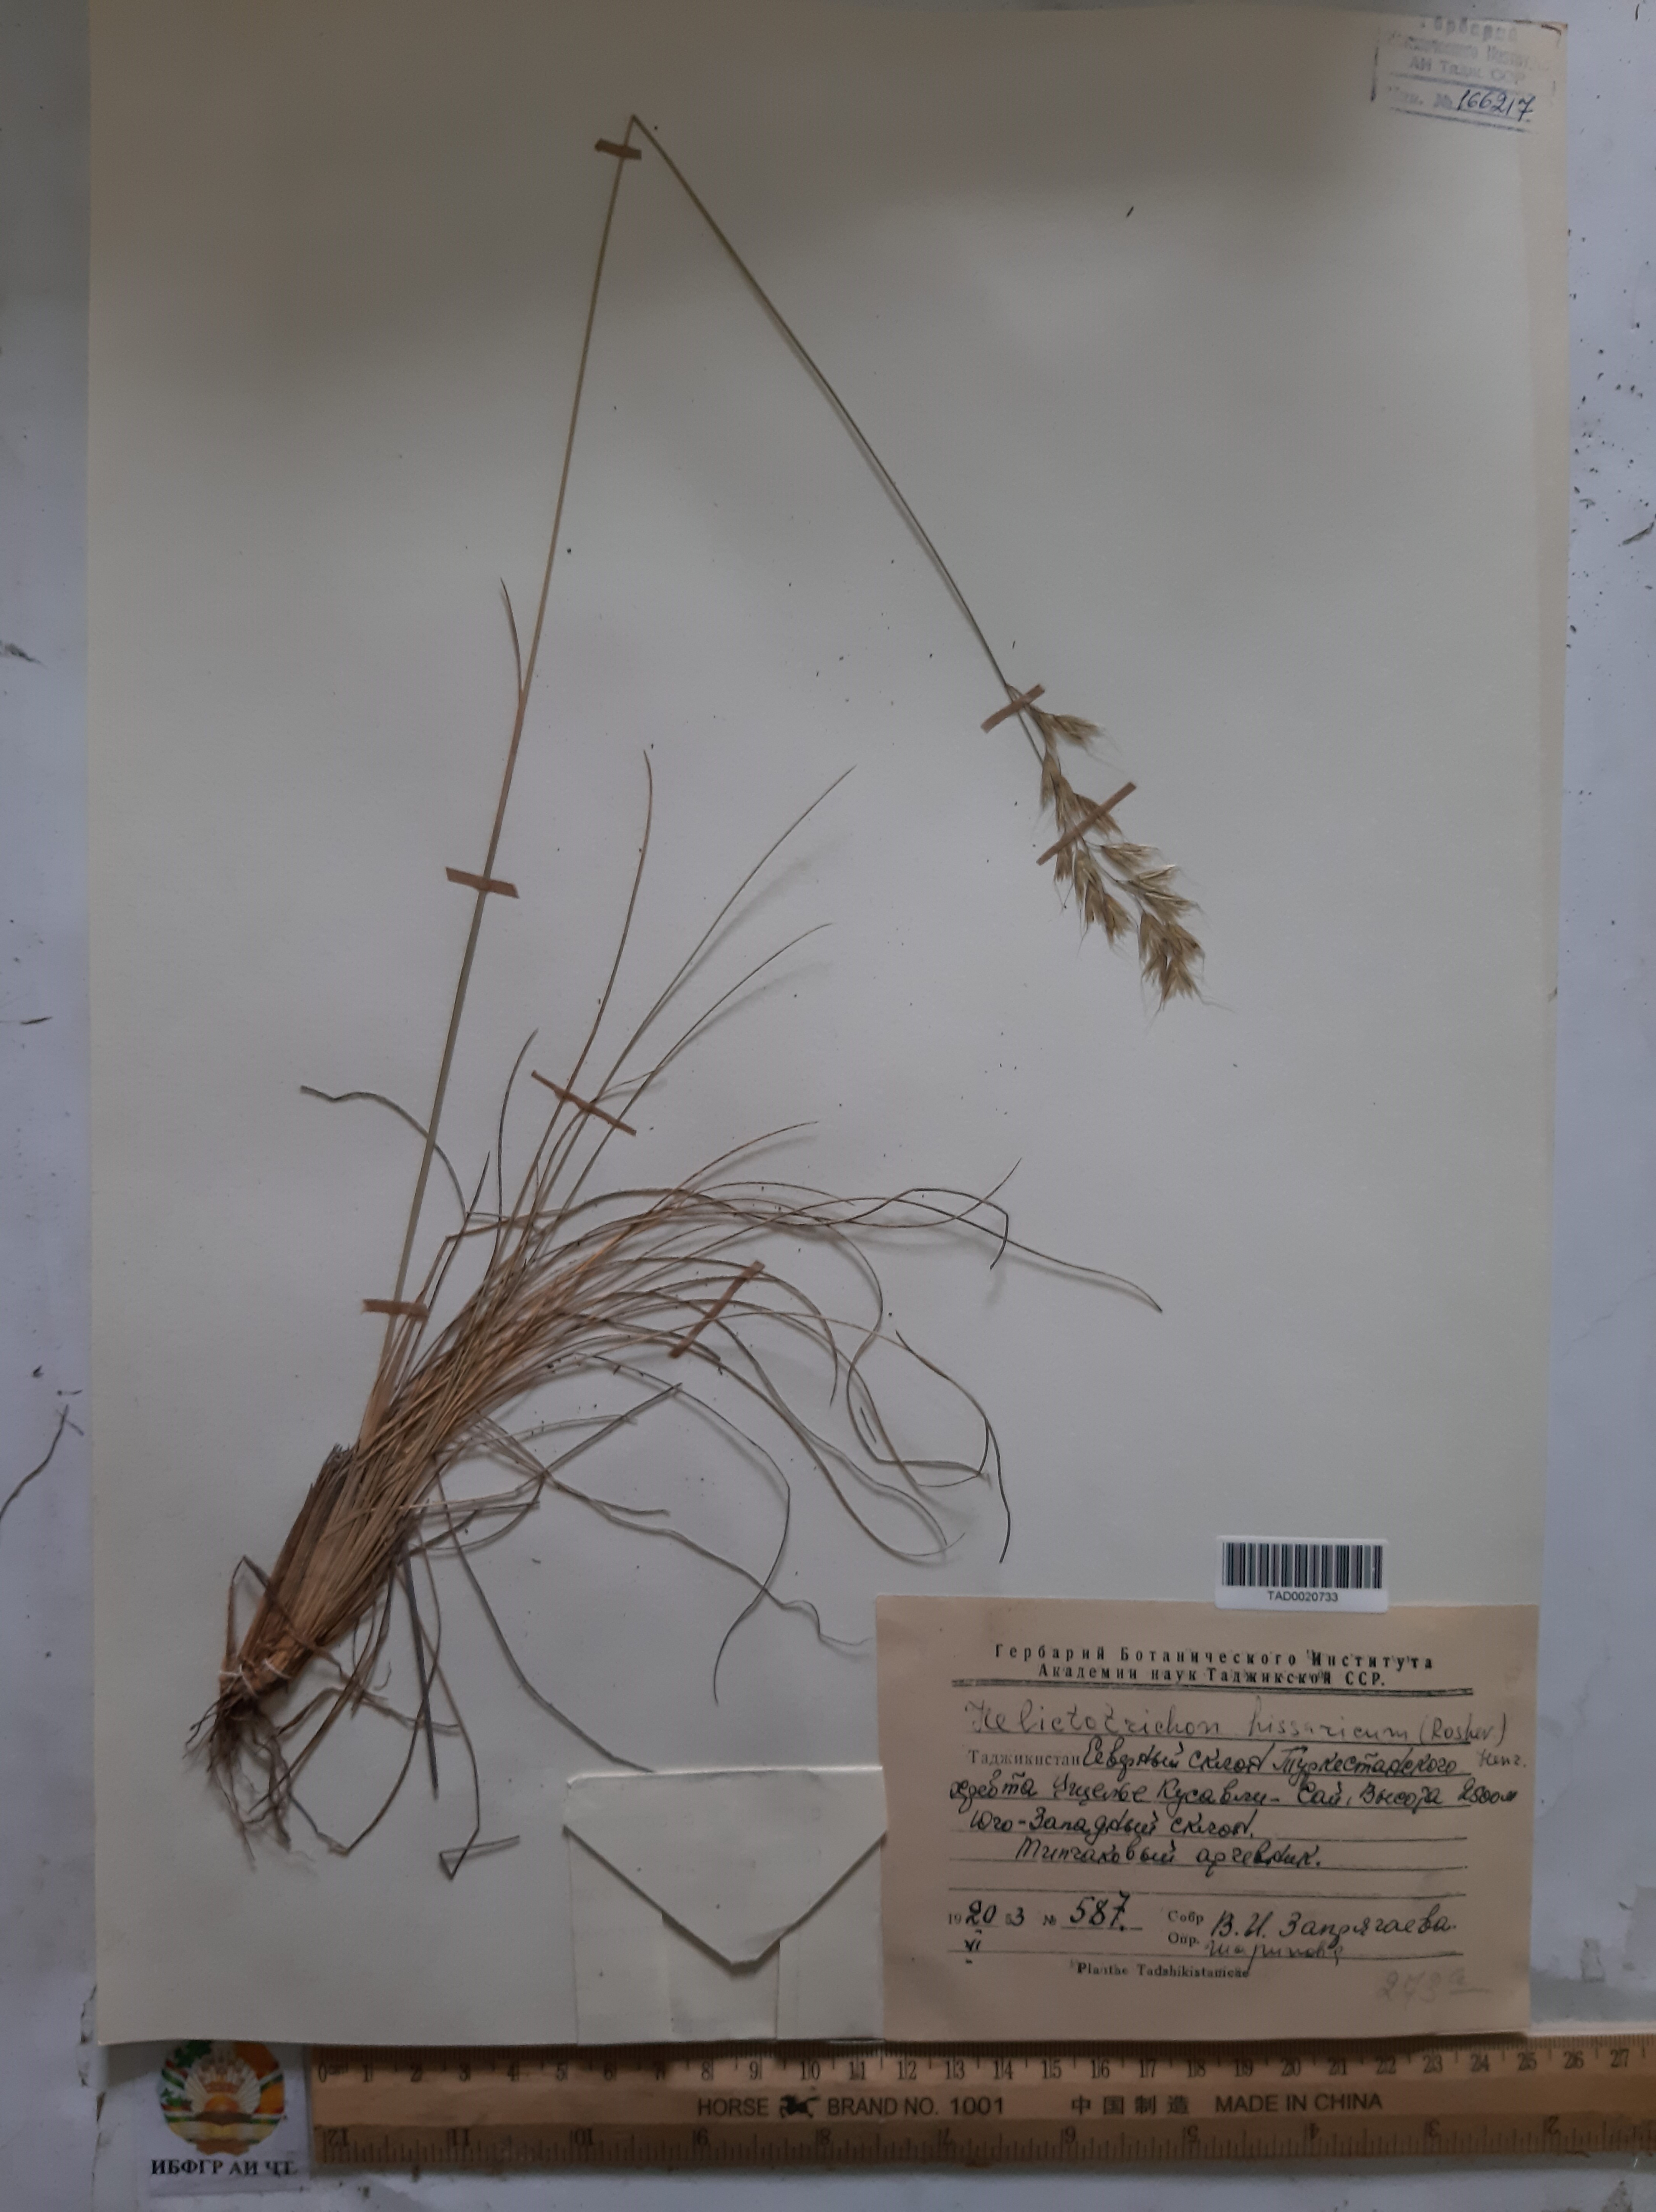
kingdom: Plantae
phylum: Tracheophyta
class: Liliopsida
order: Poales
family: Poaceae
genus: Helictotrichon
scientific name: Helictotrichon hissaricum
